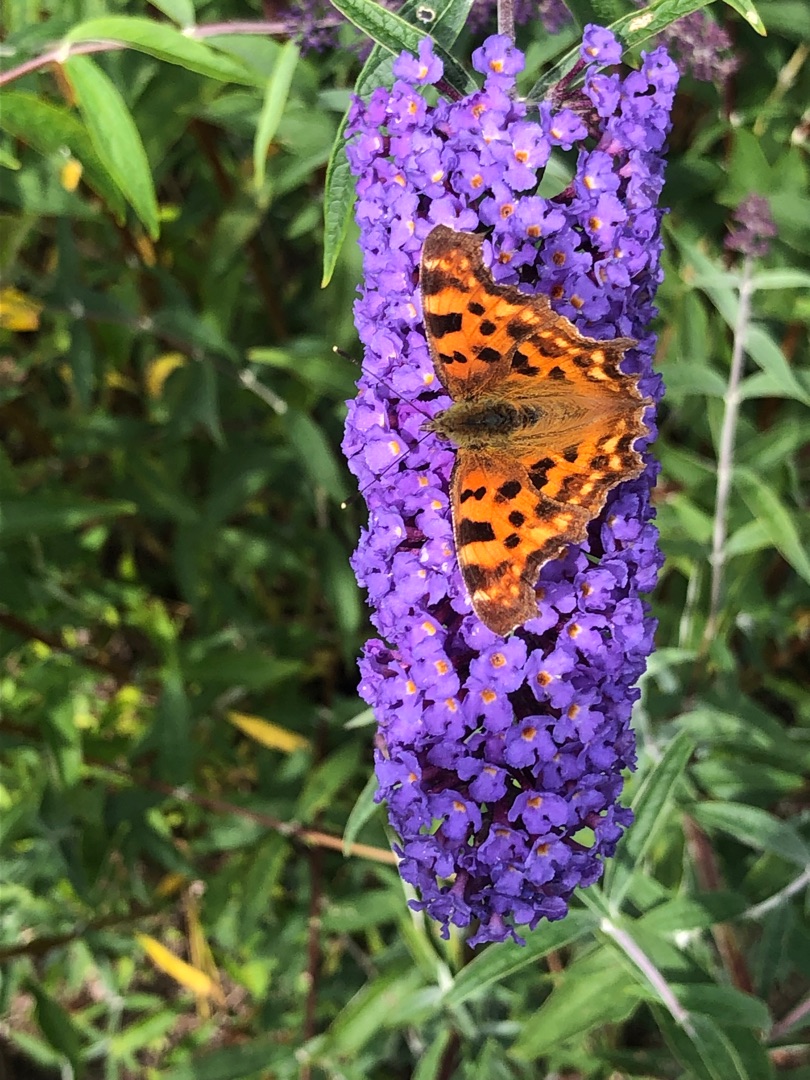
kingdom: Animalia
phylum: Arthropoda
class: Insecta
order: Lepidoptera
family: Nymphalidae
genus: Polygonia
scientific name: Polygonia c-album
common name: Det hvide C
